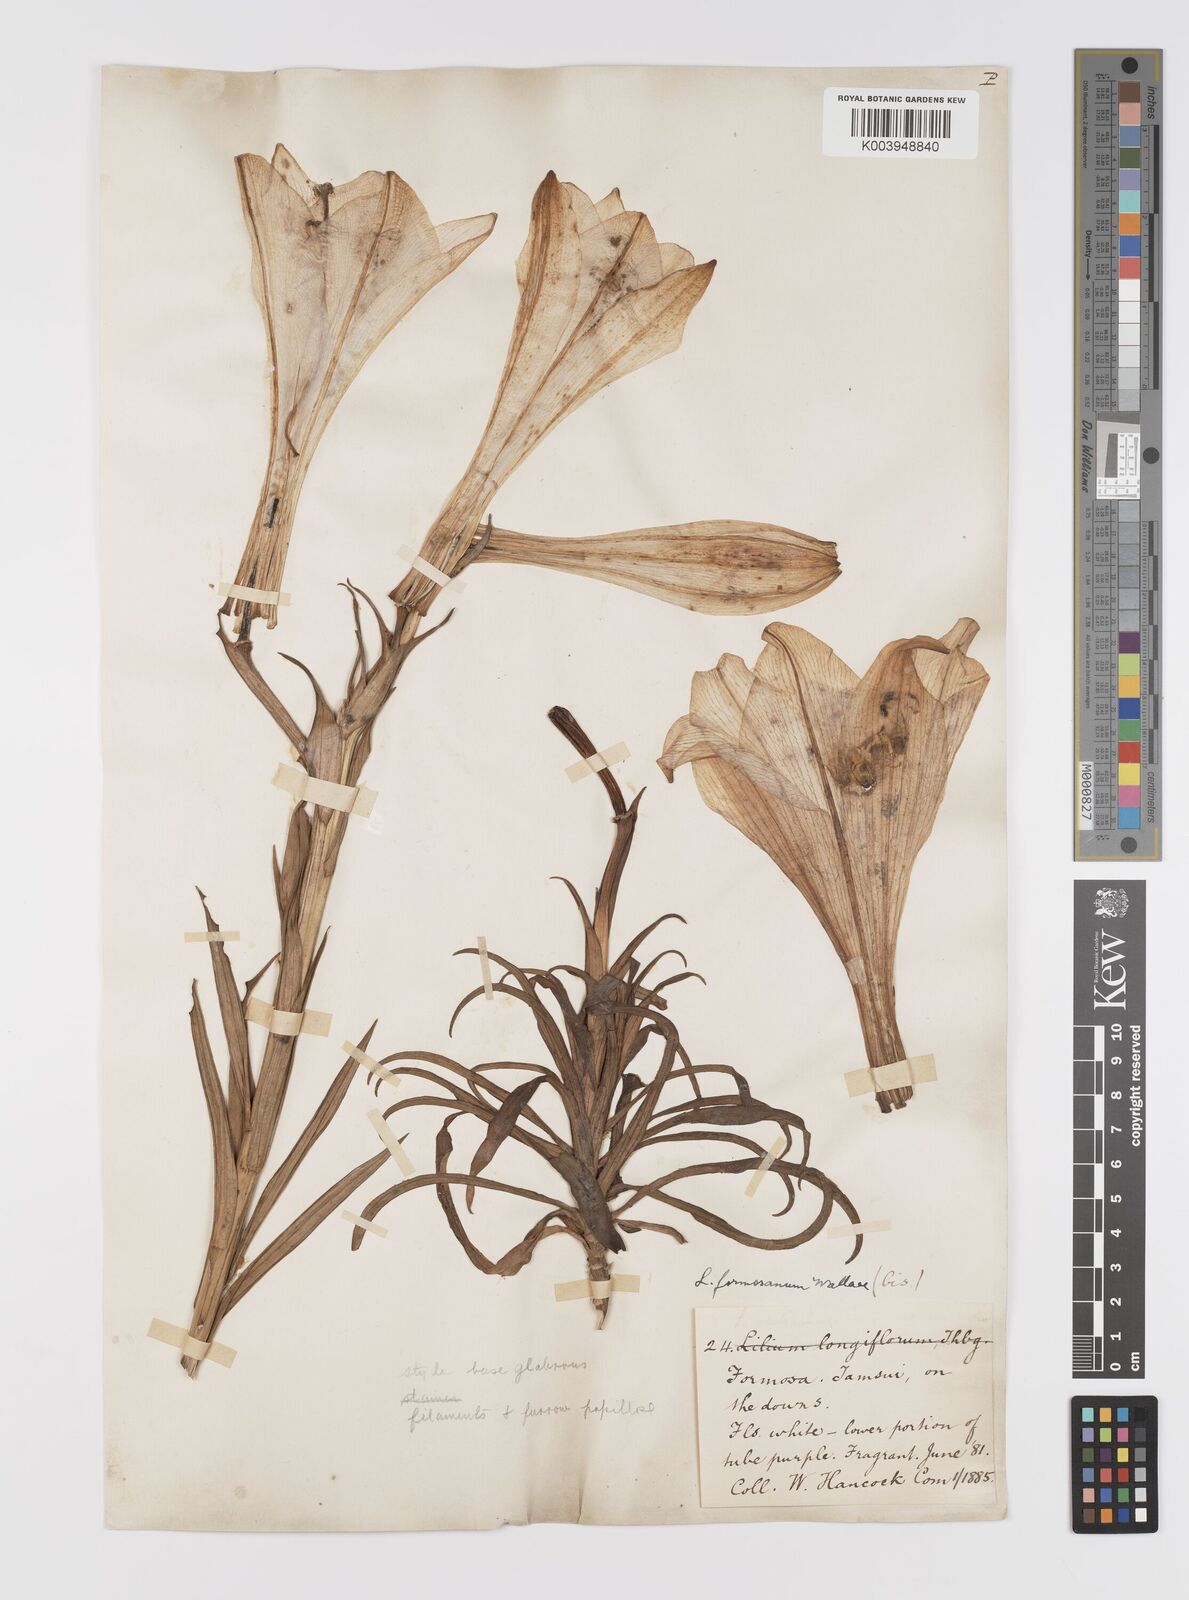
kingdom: Plantae
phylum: Tracheophyta
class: Liliopsida
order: Liliales
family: Liliaceae
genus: Lilium
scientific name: Lilium formosanum
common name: Formosa lily
